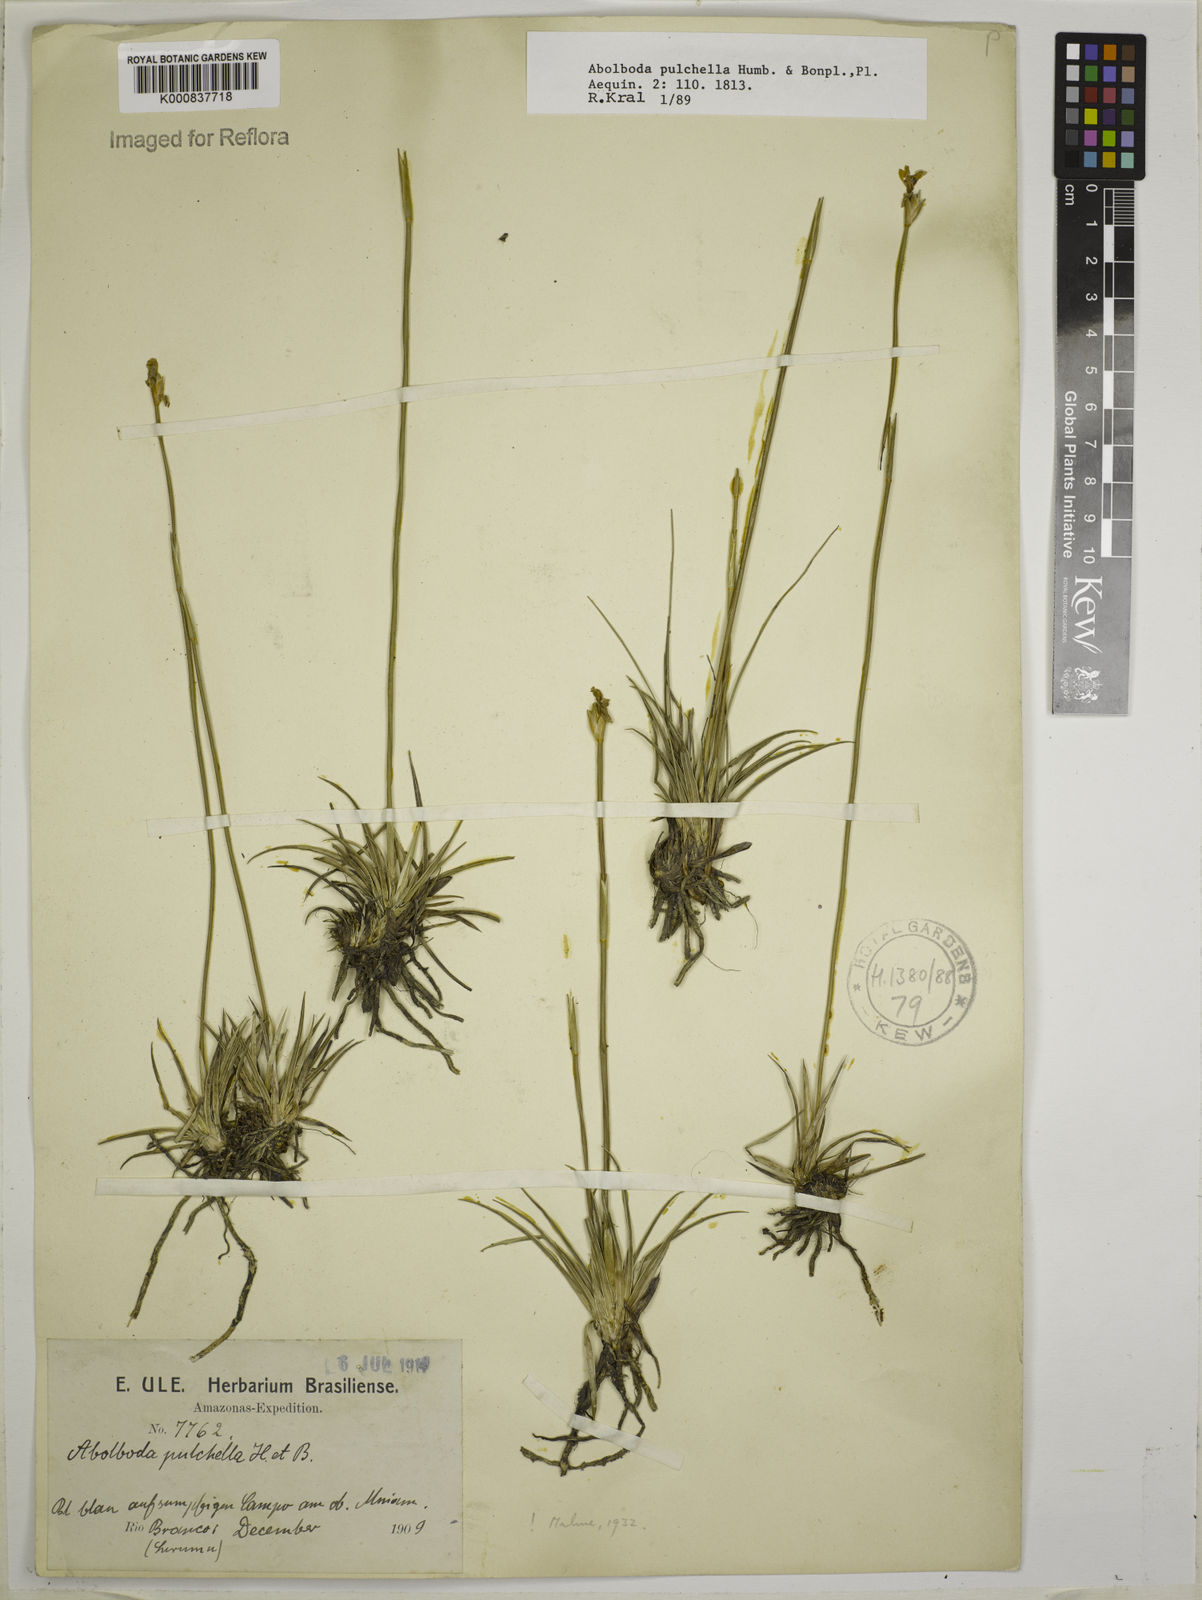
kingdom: Plantae
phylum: Tracheophyta
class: Liliopsida
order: Poales
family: Xyridaceae
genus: Abolboda
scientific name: Abolboda pulchella
